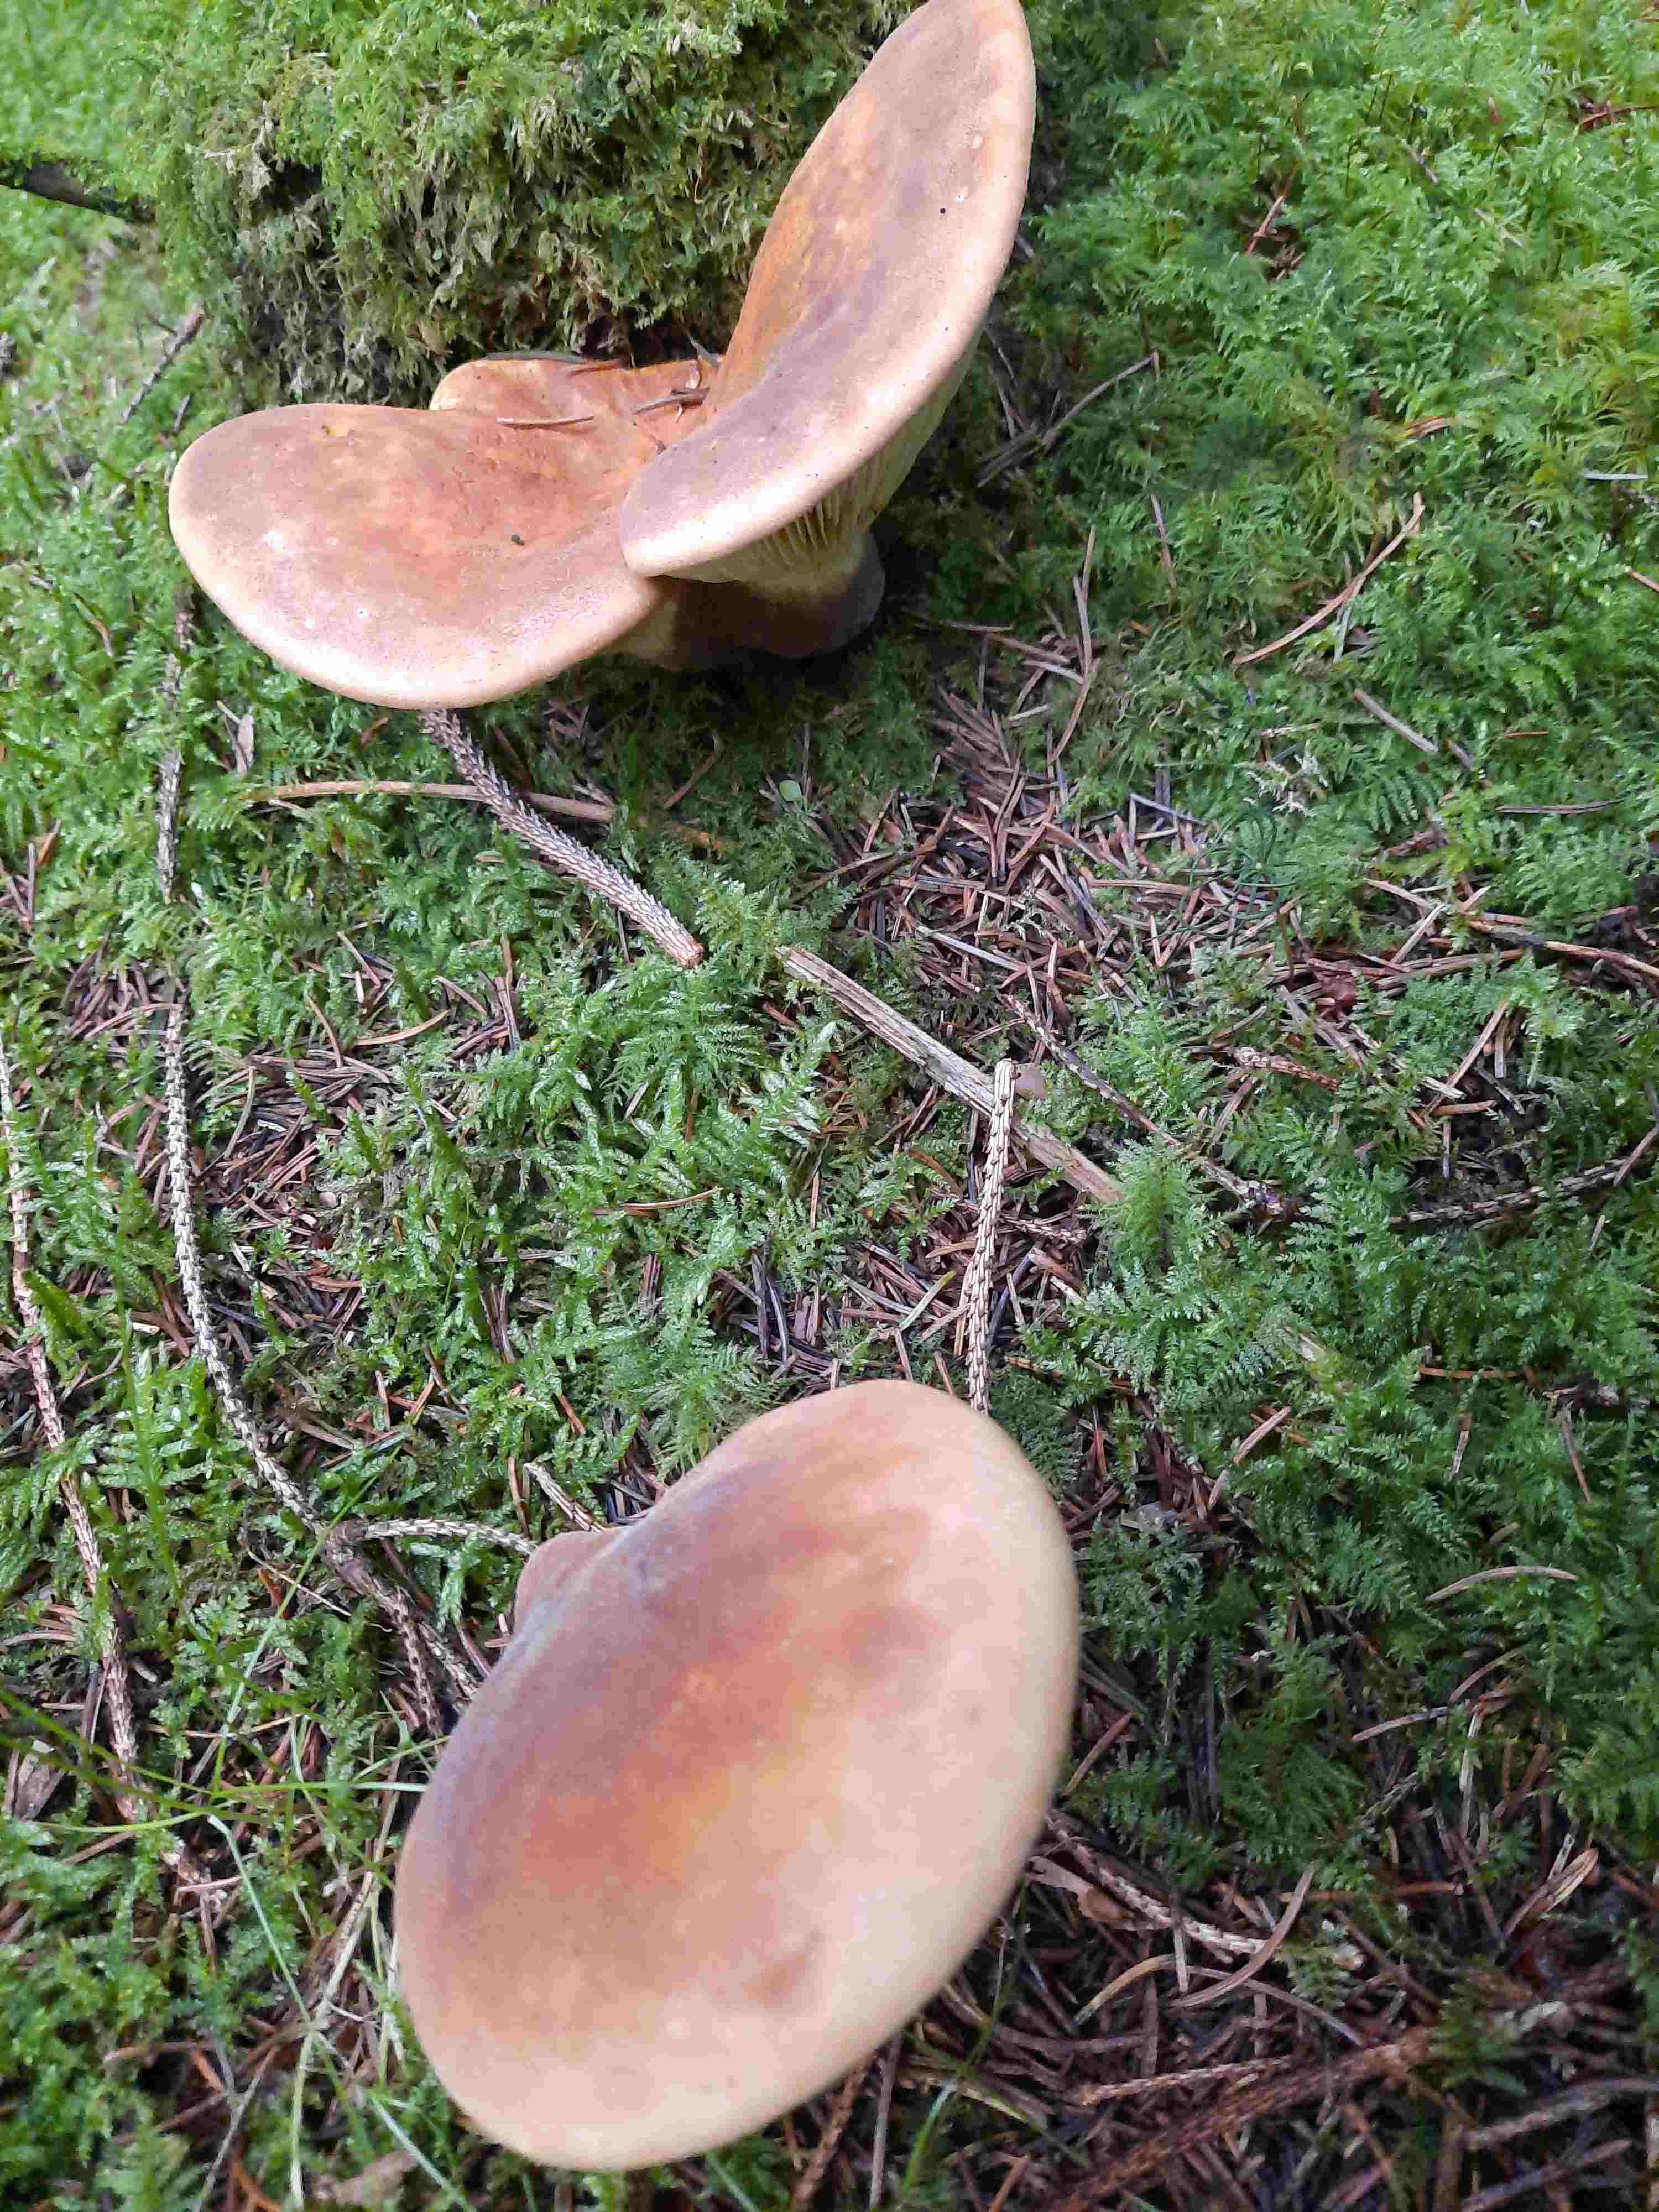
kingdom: Fungi
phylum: Basidiomycota
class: Agaricomycetes
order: Boletales
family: Tapinellaceae
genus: Tapinella
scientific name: Tapinella atrotomentosa
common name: sortfiltet viftesvamp
